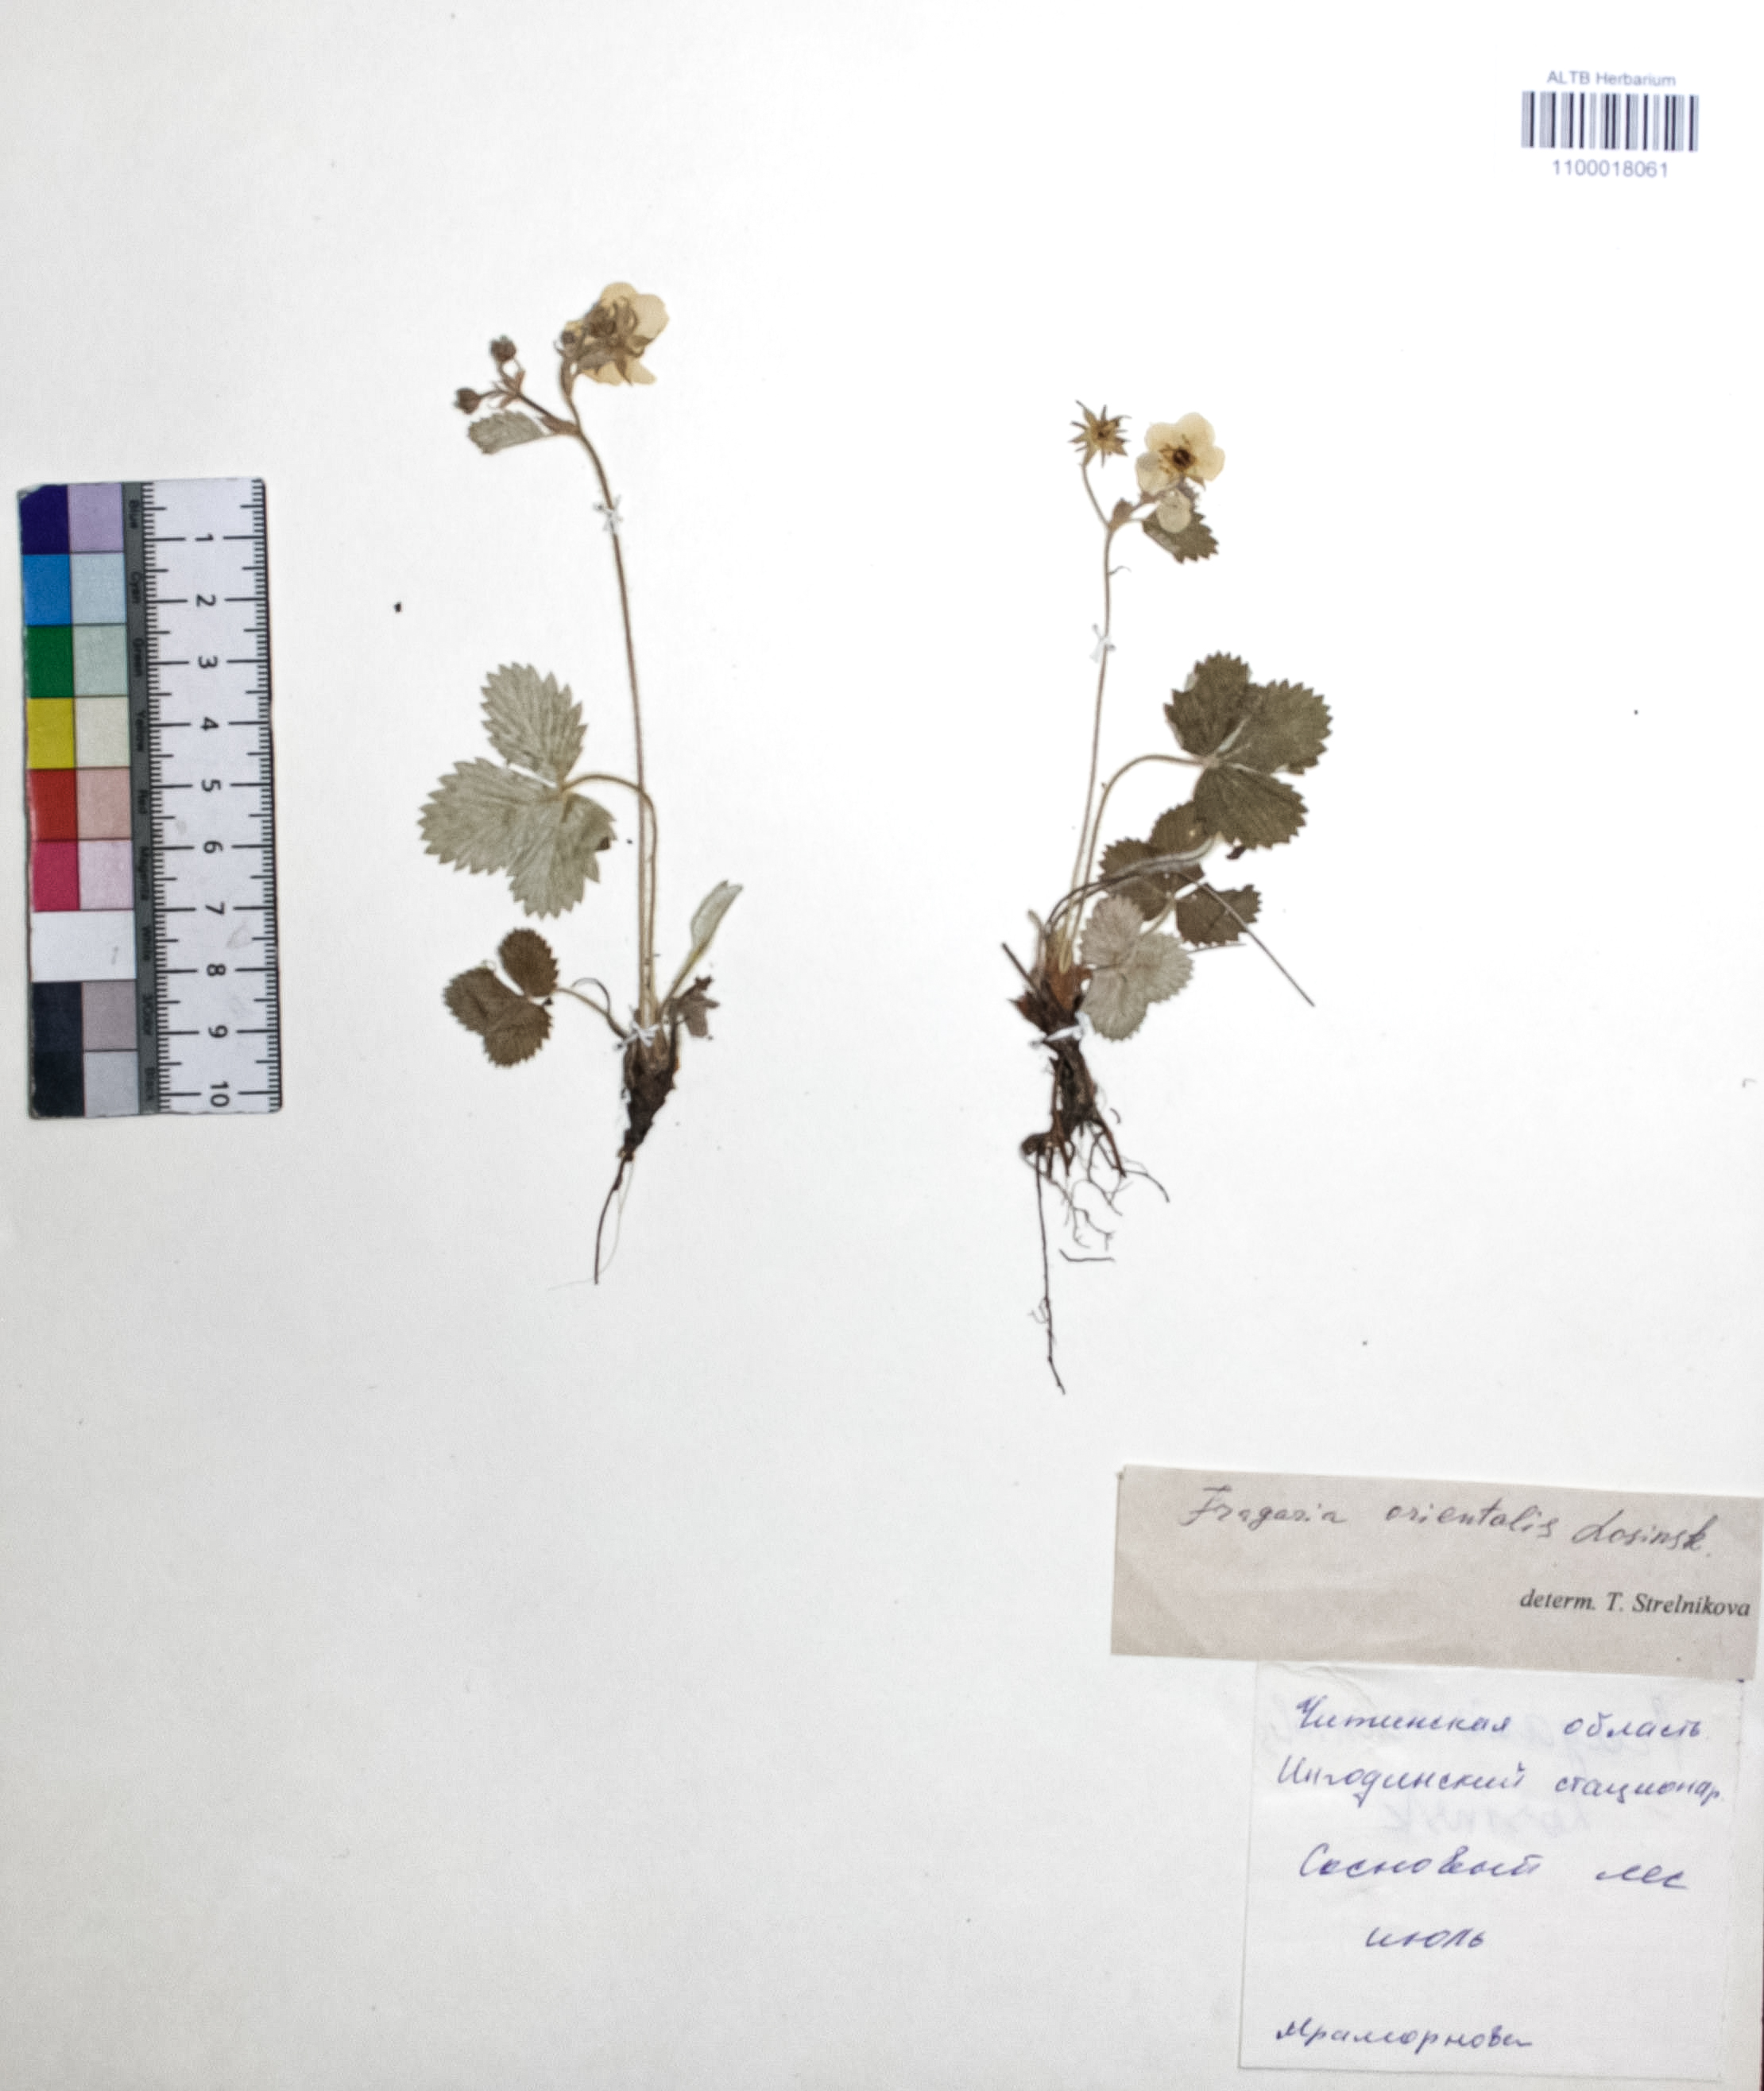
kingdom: Plantae
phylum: Tracheophyta
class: Magnoliopsida
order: Rosales
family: Rosaceae
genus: Fragaria
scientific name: Fragaria orientalis
